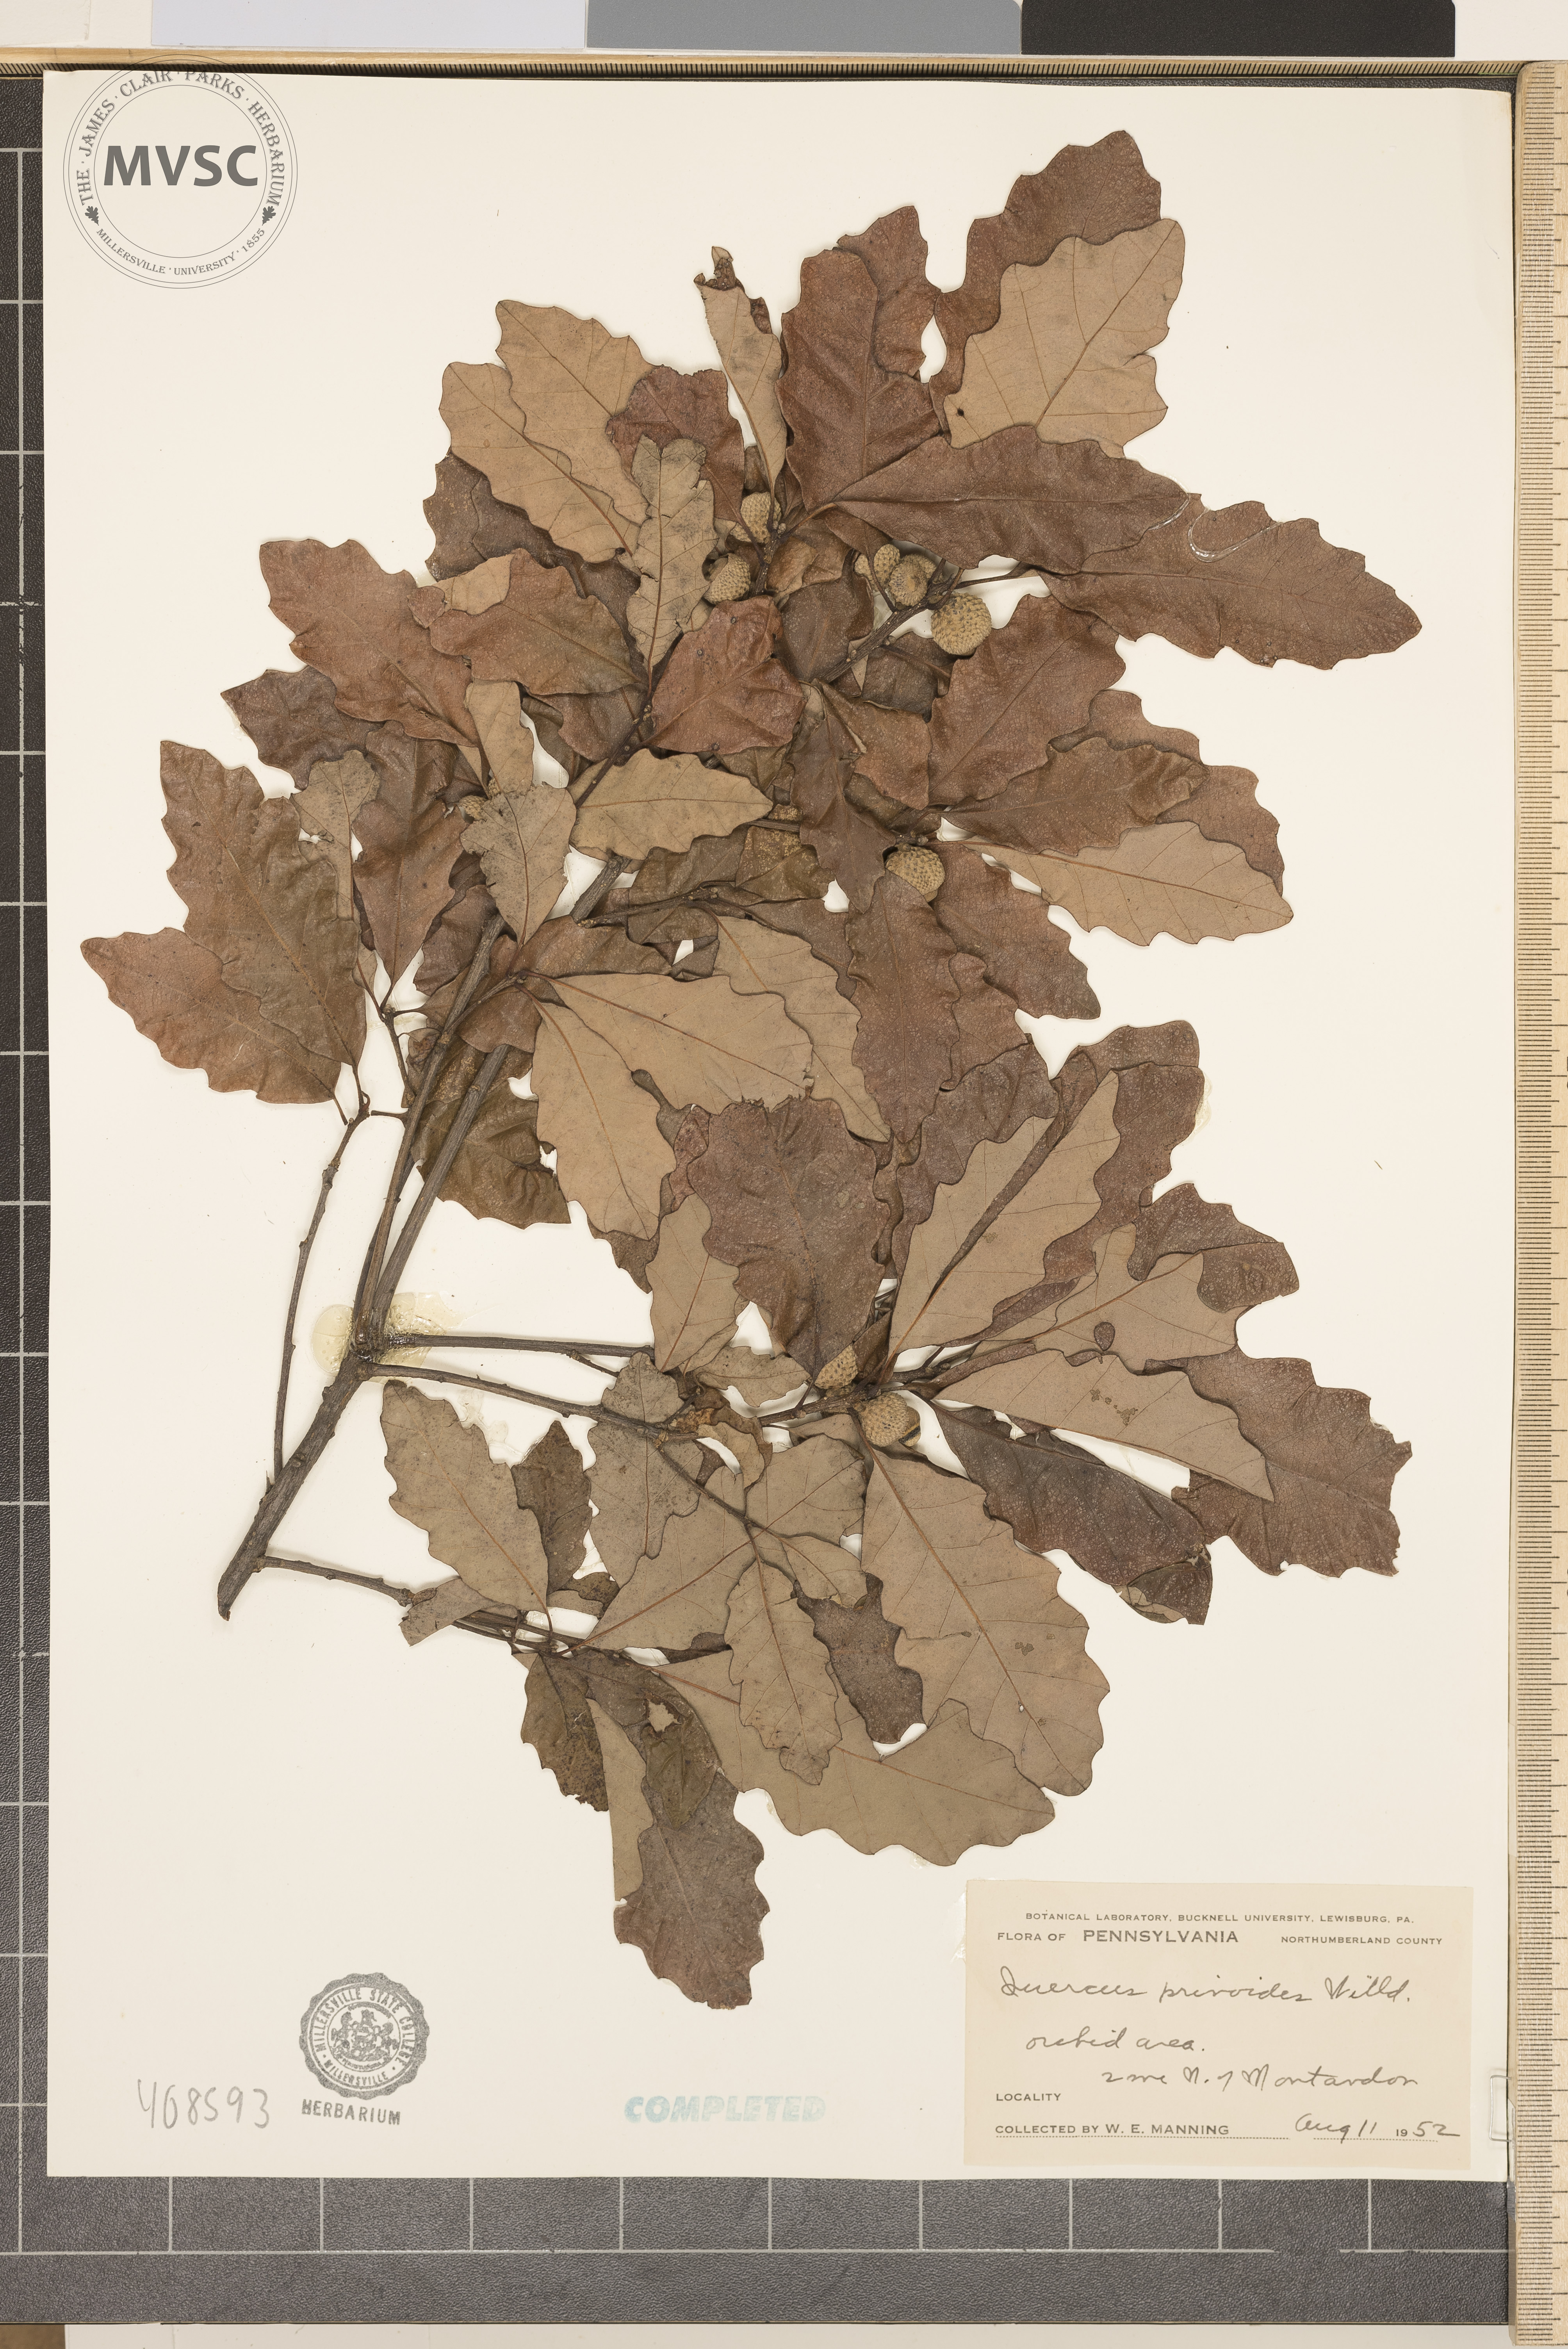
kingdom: Plantae
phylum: Tracheophyta
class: Magnoliopsida
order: Fagales
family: Fagaceae
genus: Quercus
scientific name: Quercus prinoides
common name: Dwarf Chinkapin Oak
